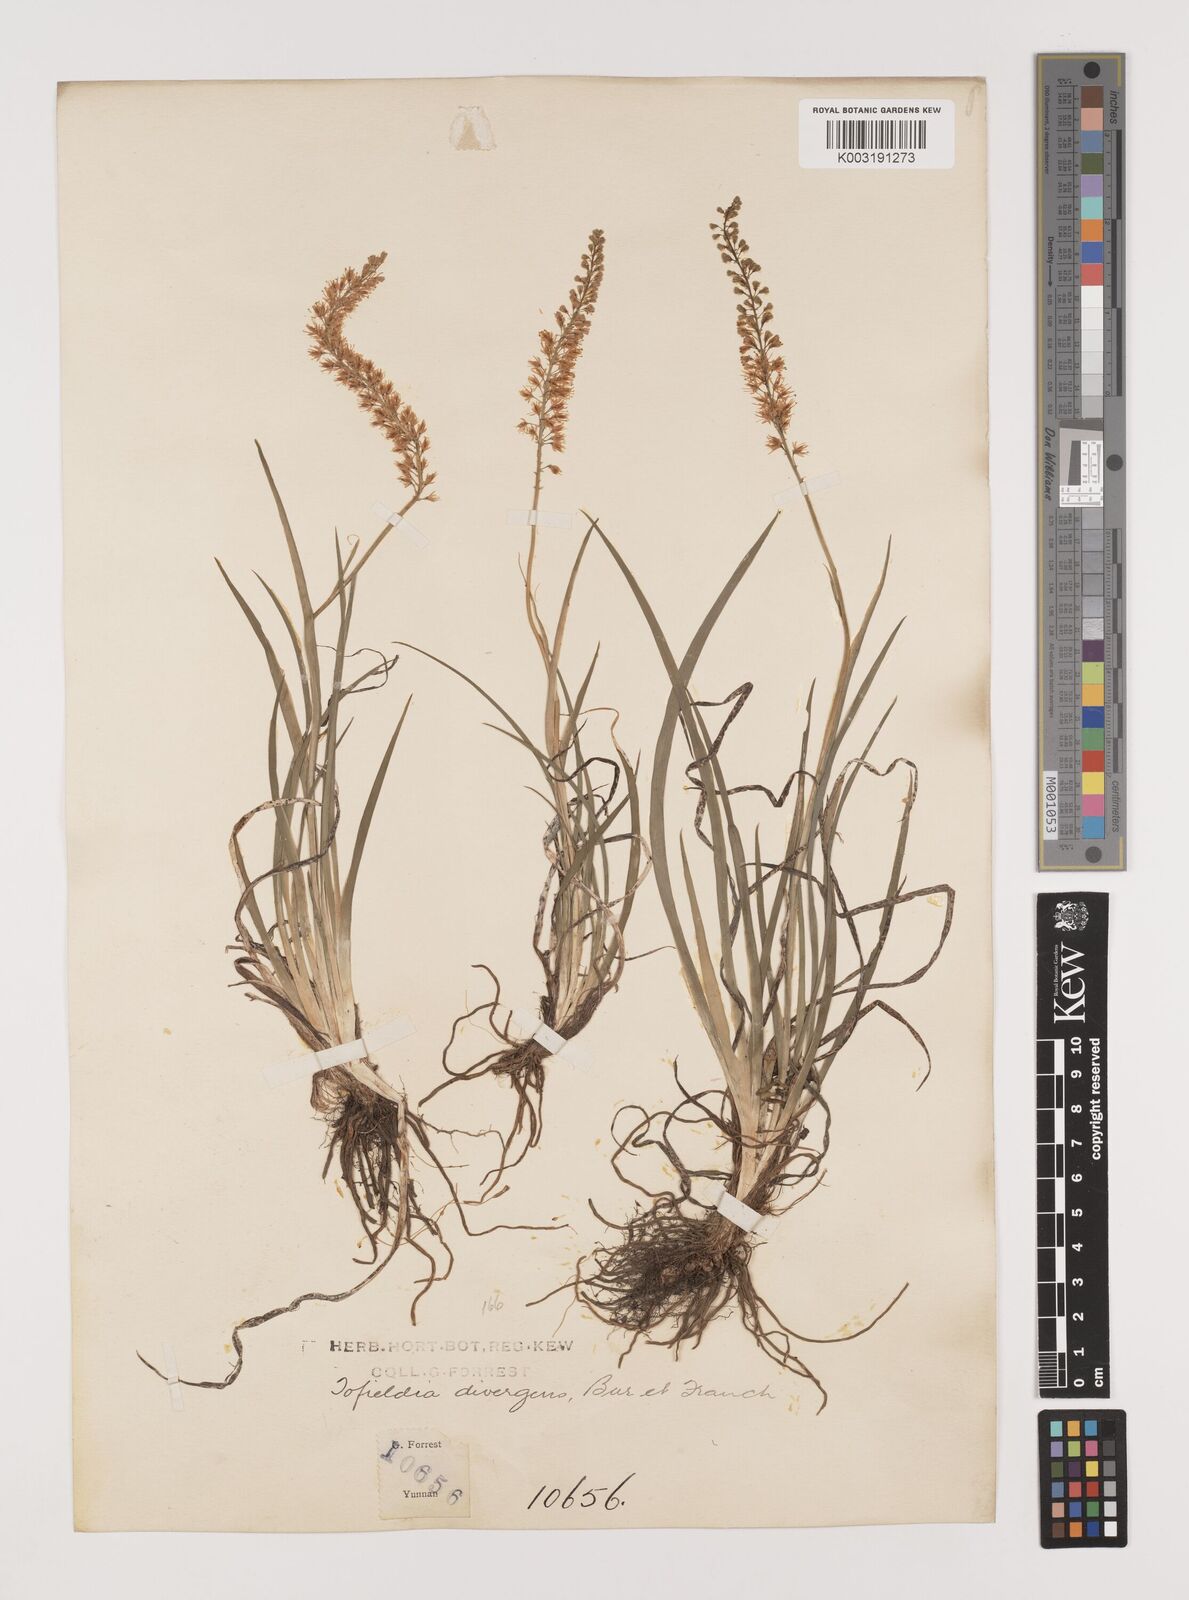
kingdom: Plantae
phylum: Tracheophyta
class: Liliopsida
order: Alismatales
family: Tofieldiaceae
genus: Tofieldia
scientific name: Tofieldia divergens
